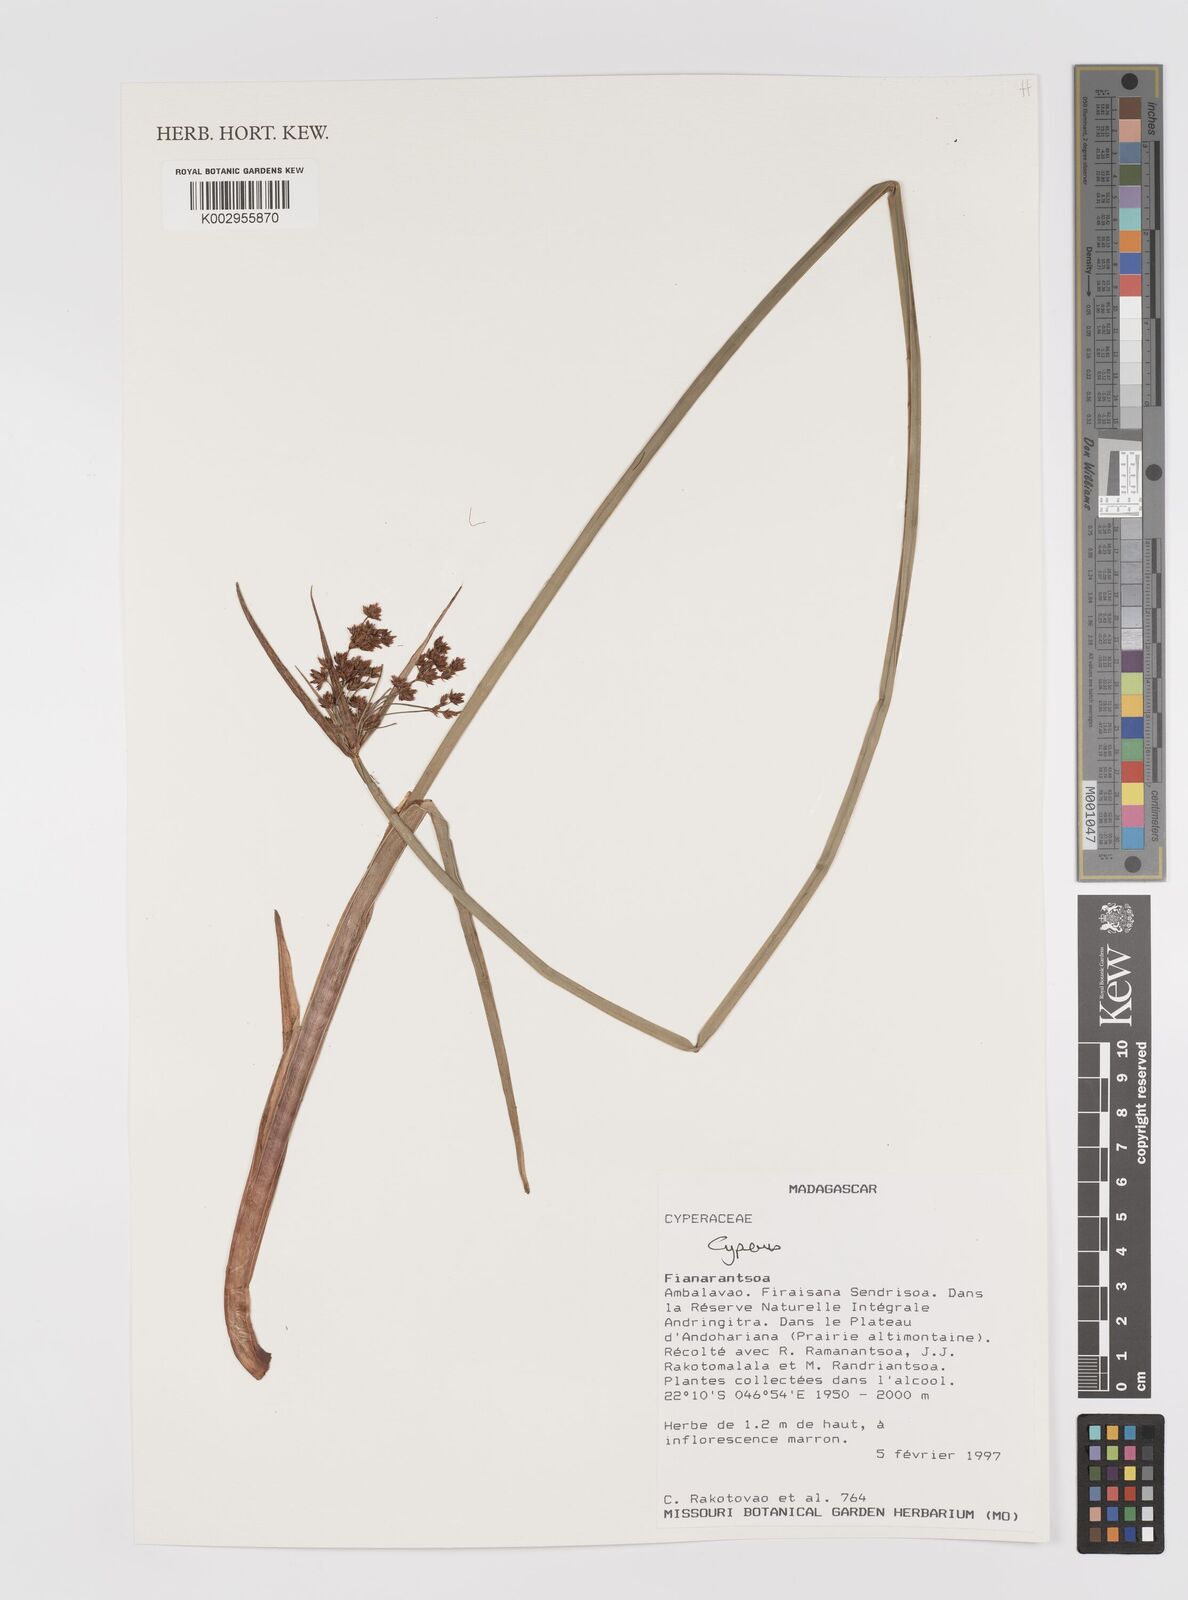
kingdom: Plantae
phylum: Tracheophyta
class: Liliopsida
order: Poales
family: Cyperaceae
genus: Cyperus
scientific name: Cyperus
